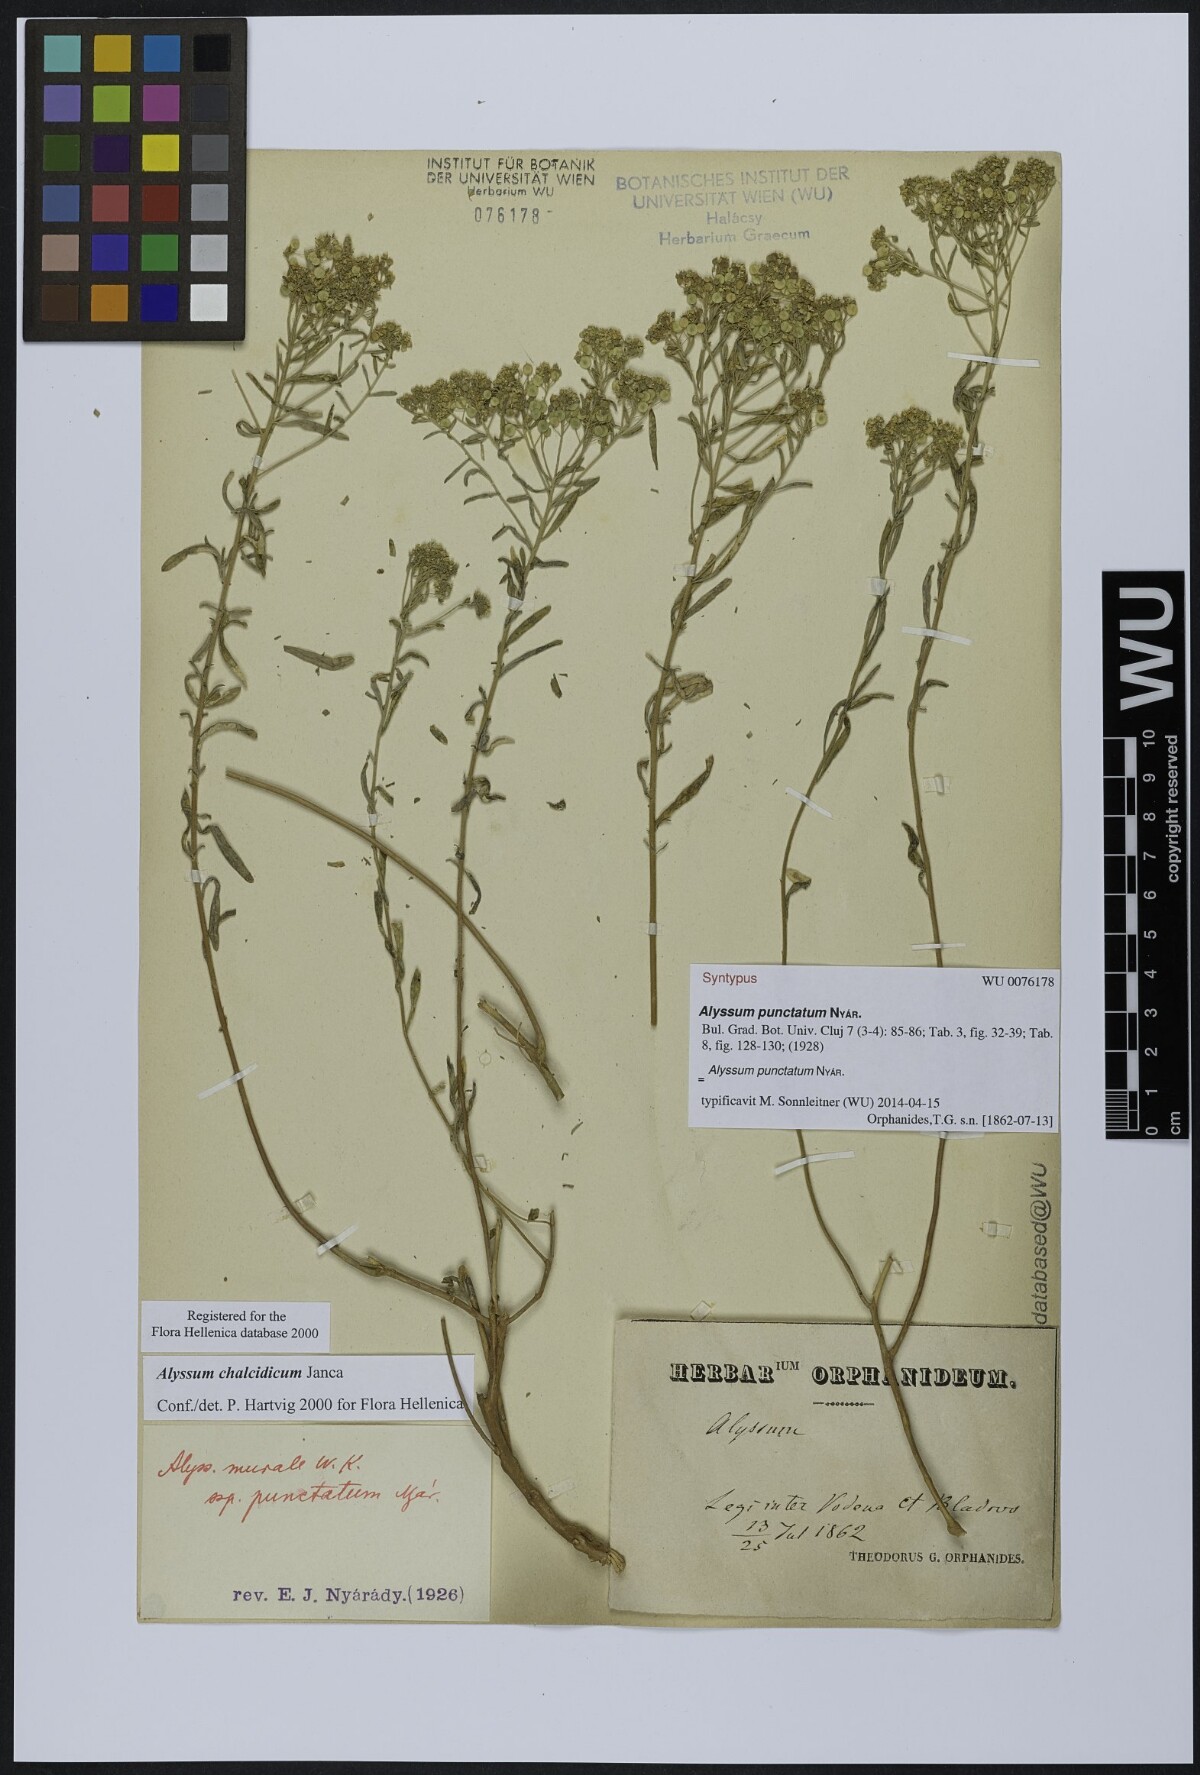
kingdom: Plantae
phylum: Tracheophyta
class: Magnoliopsida
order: Brassicales
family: Brassicaceae
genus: Odontarrhena
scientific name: Odontarrhena muralis
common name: Rock alyssum
